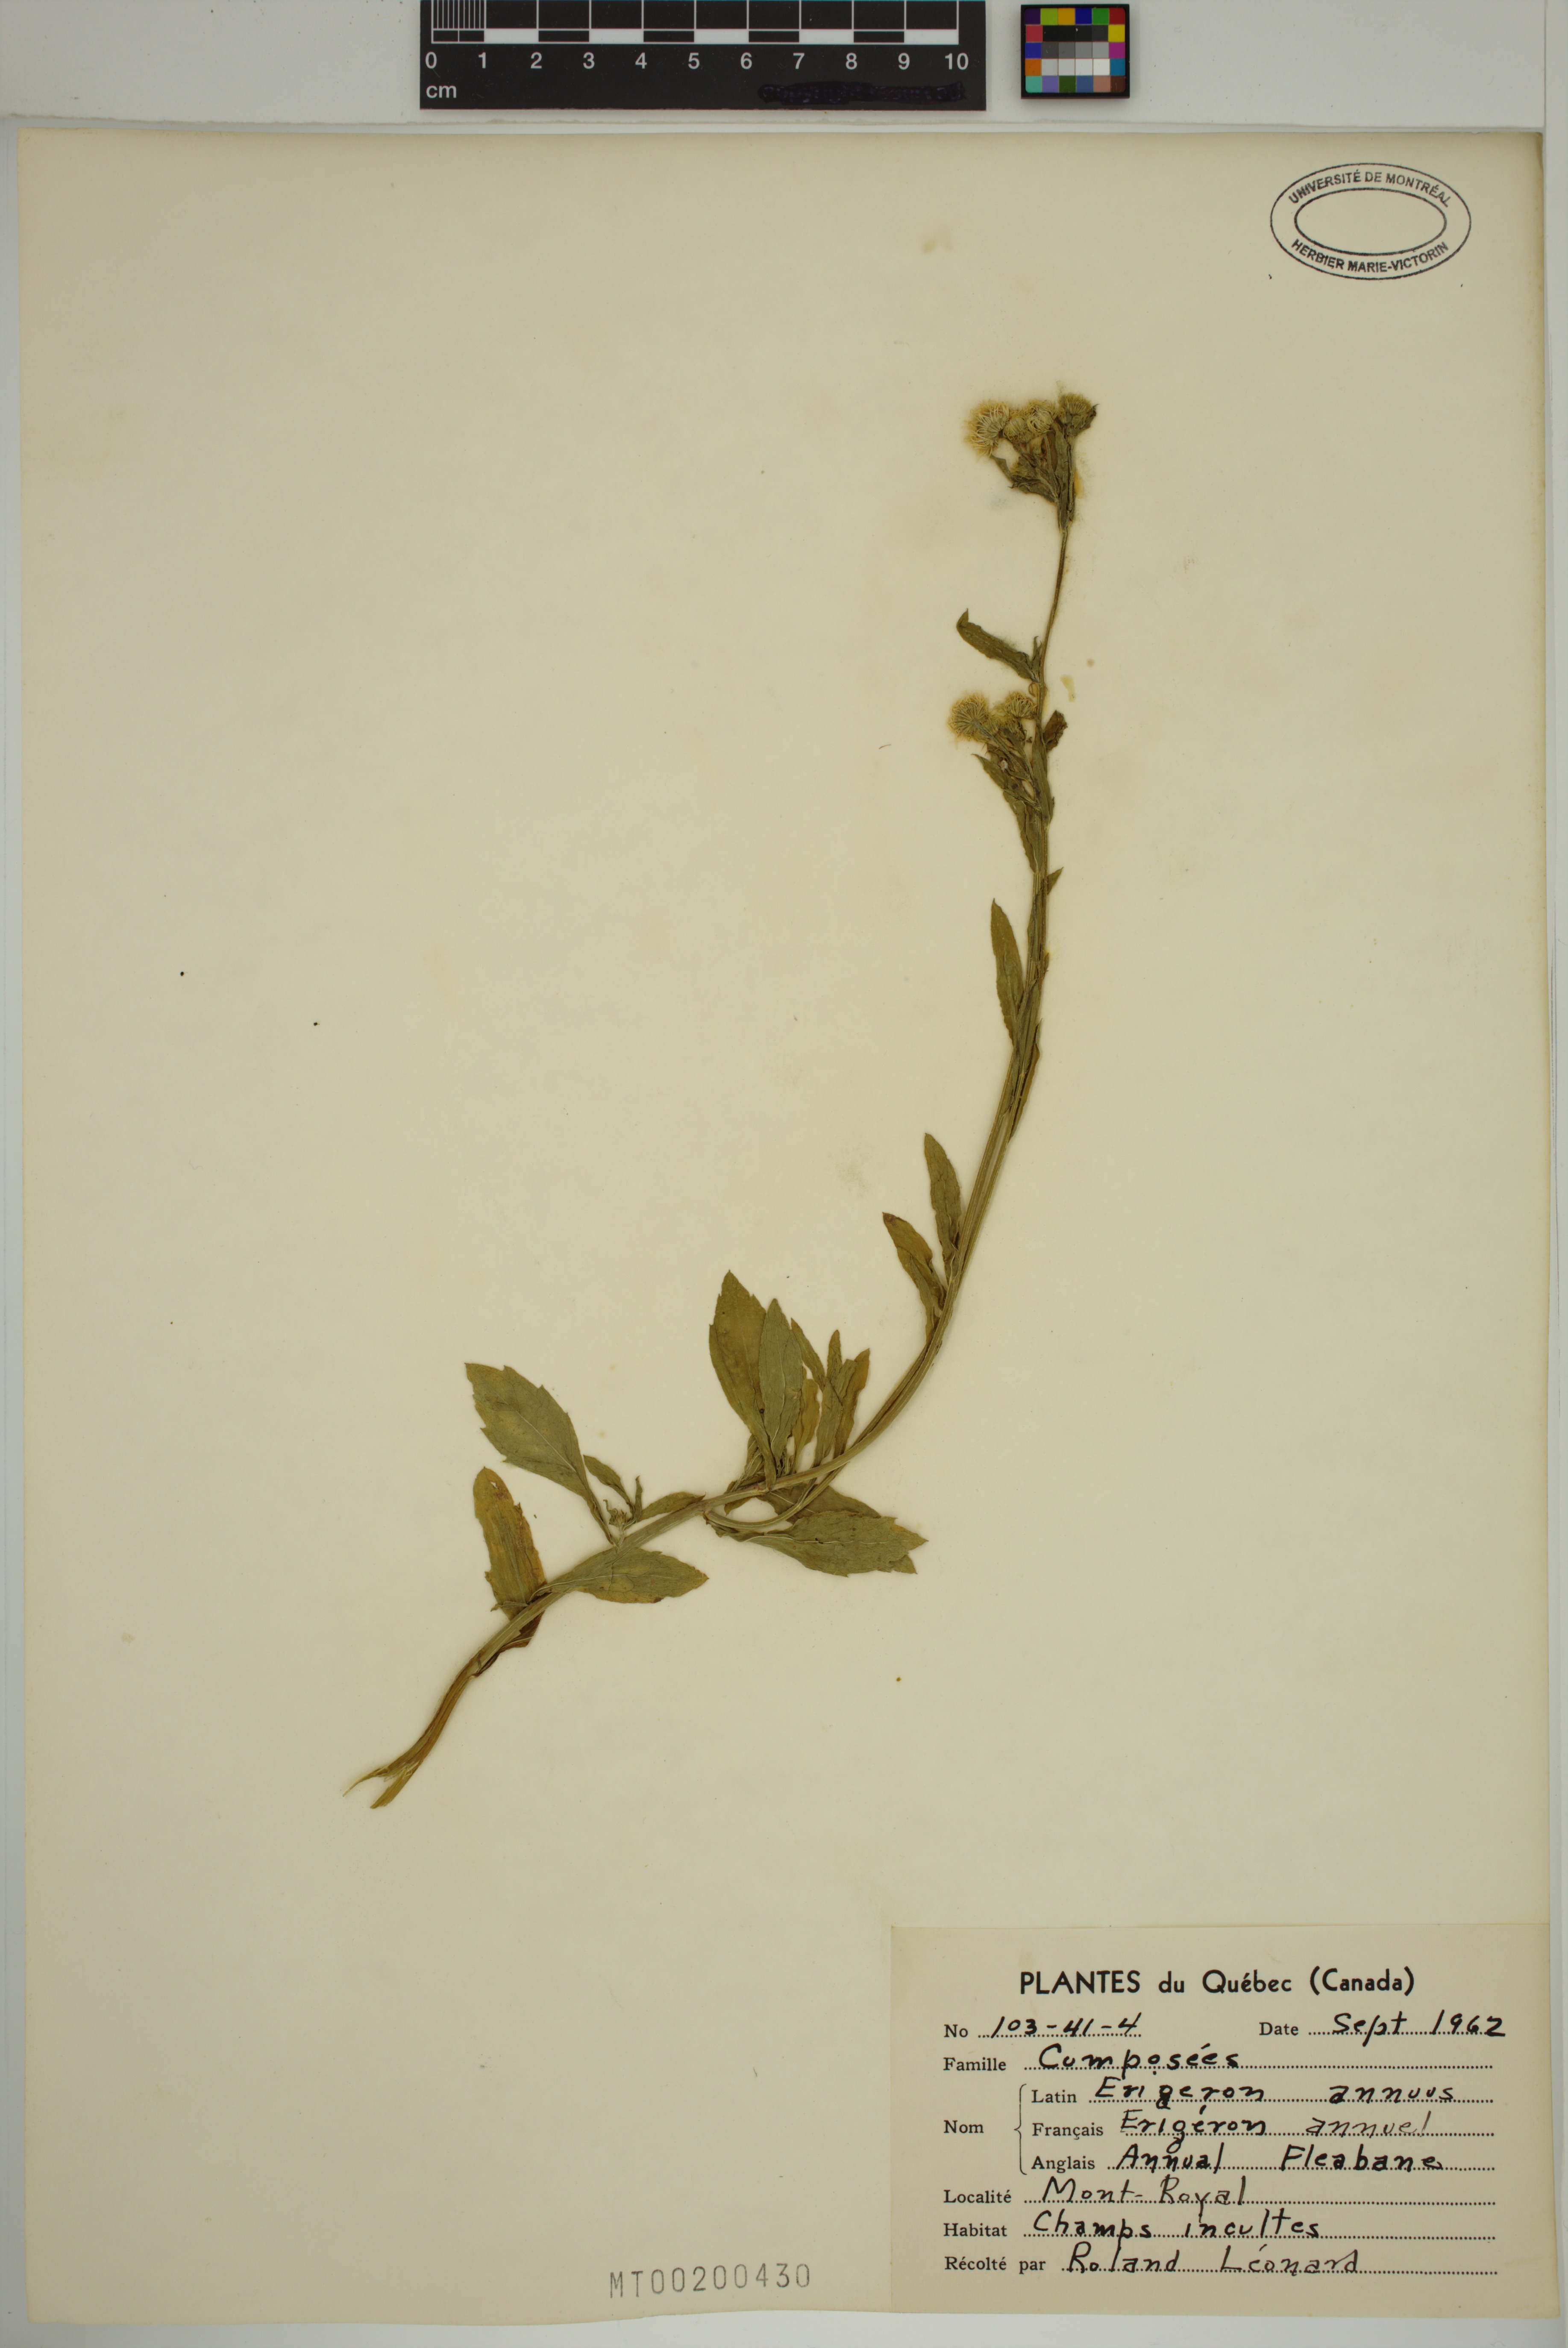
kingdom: Plantae
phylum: Tracheophyta
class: Magnoliopsida
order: Asterales
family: Asteraceae
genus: Erigeron
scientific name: Erigeron annuus
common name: Tall fleabane
